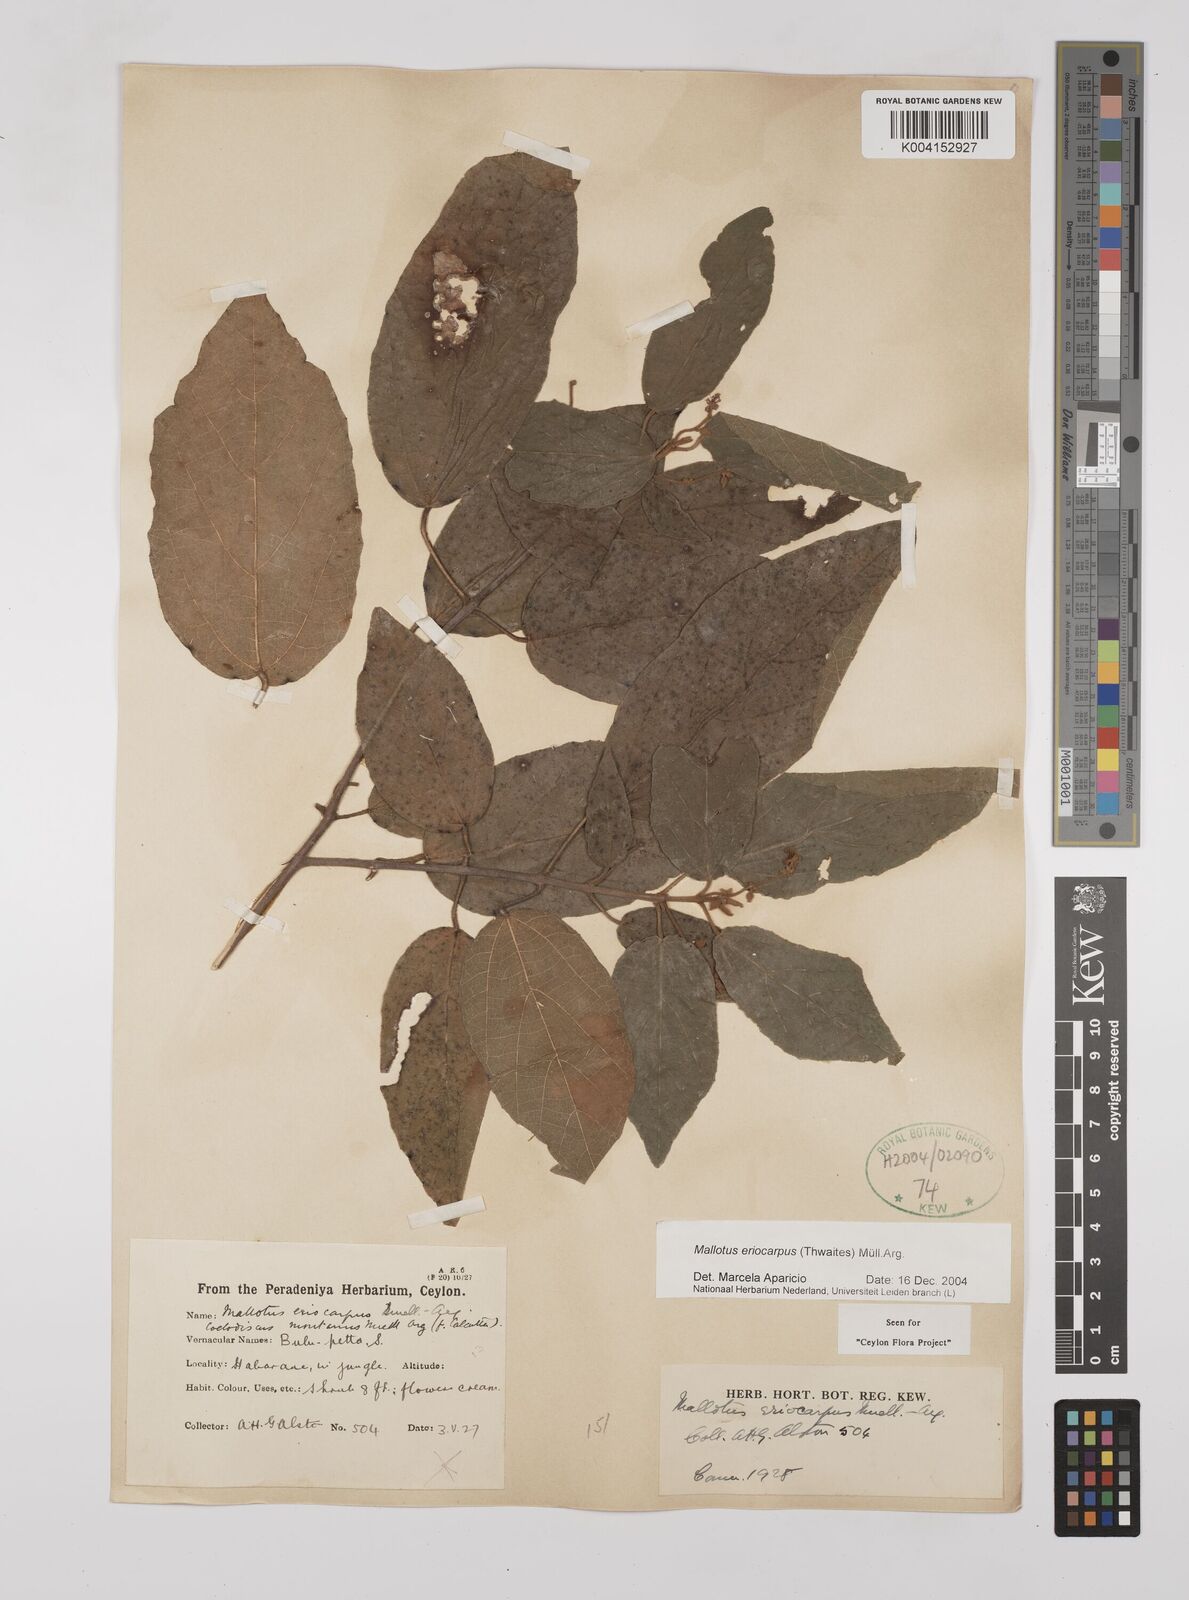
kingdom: Plantae
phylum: Tracheophyta
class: Magnoliopsida
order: Malpighiales
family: Euphorbiaceae
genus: Mallotus
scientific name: Mallotus eriocarpus
